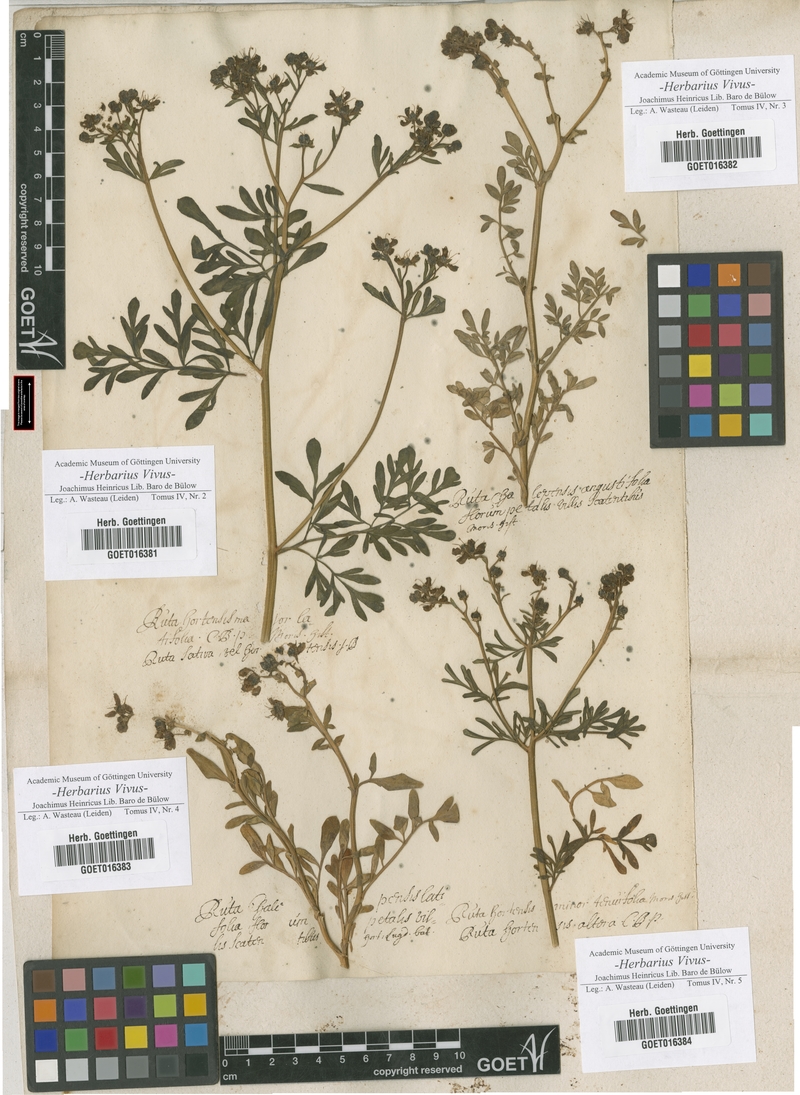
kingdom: Plantae
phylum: Tracheophyta
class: Magnoliopsida
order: Sapindales
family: Rutaceae
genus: Ruta
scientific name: Ruta graveolens
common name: Common rue
